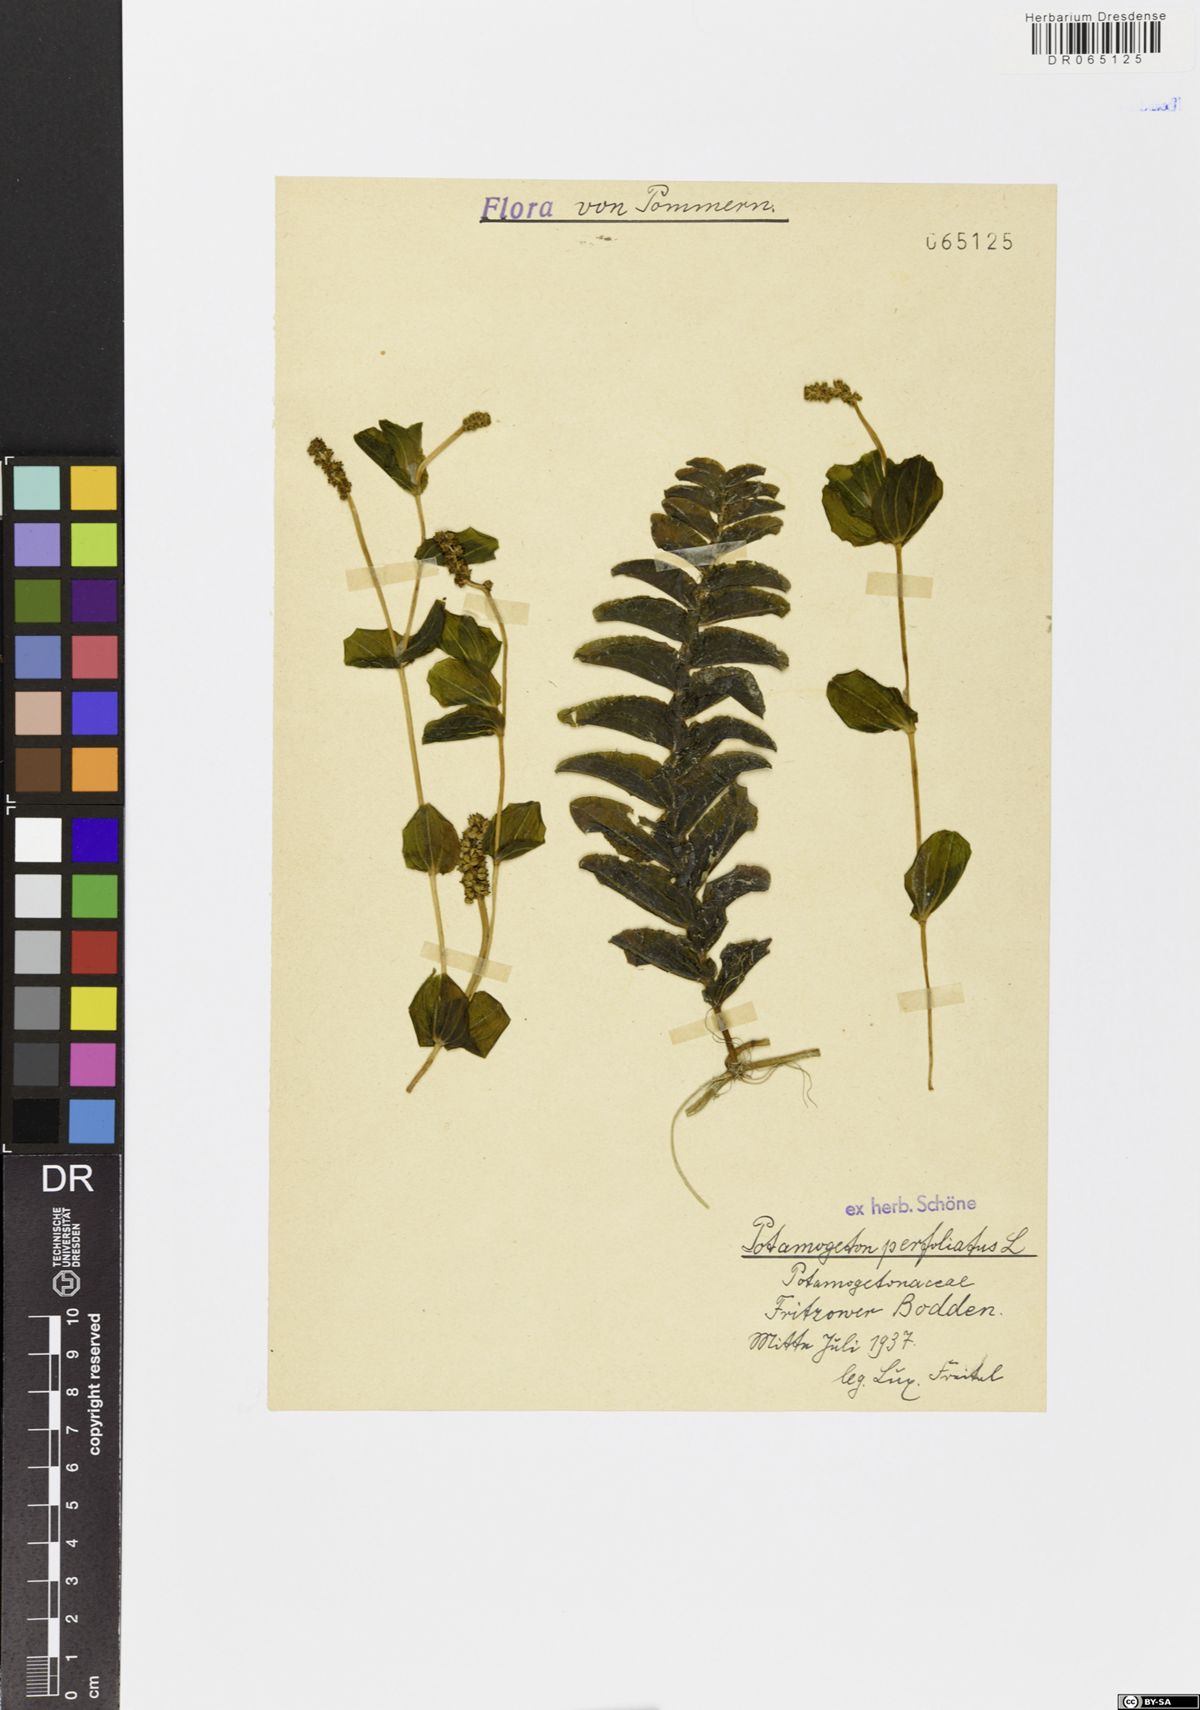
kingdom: Plantae
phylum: Tracheophyta
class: Liliopsida
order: Alismatales
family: Potamogetonaceae
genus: Potamogeton
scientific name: Potamogeton perfoliatus
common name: Perfoliate pondweed
